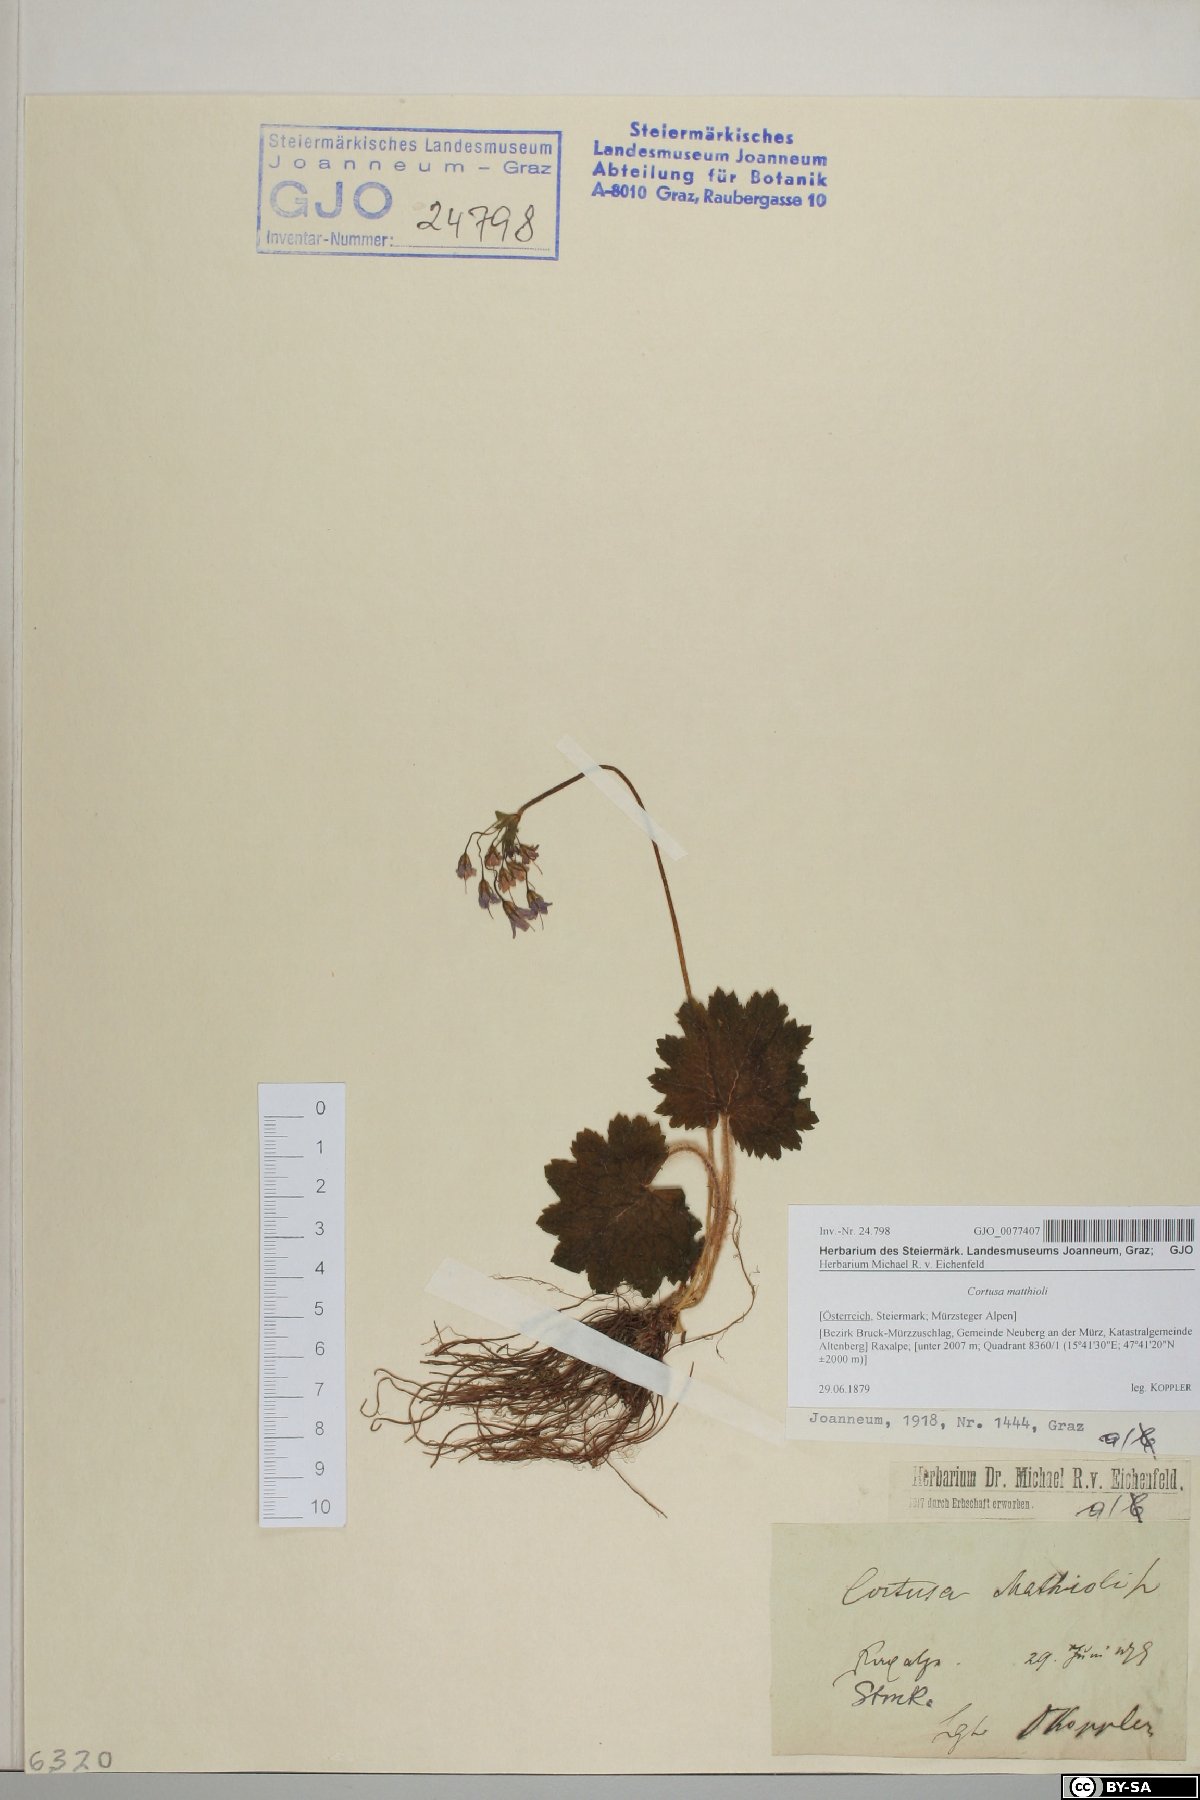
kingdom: Plantae
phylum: Tracheophyta
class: Magnoliopsida
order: Ericales
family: Primulaceae
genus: Primula
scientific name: Primula matthioli
